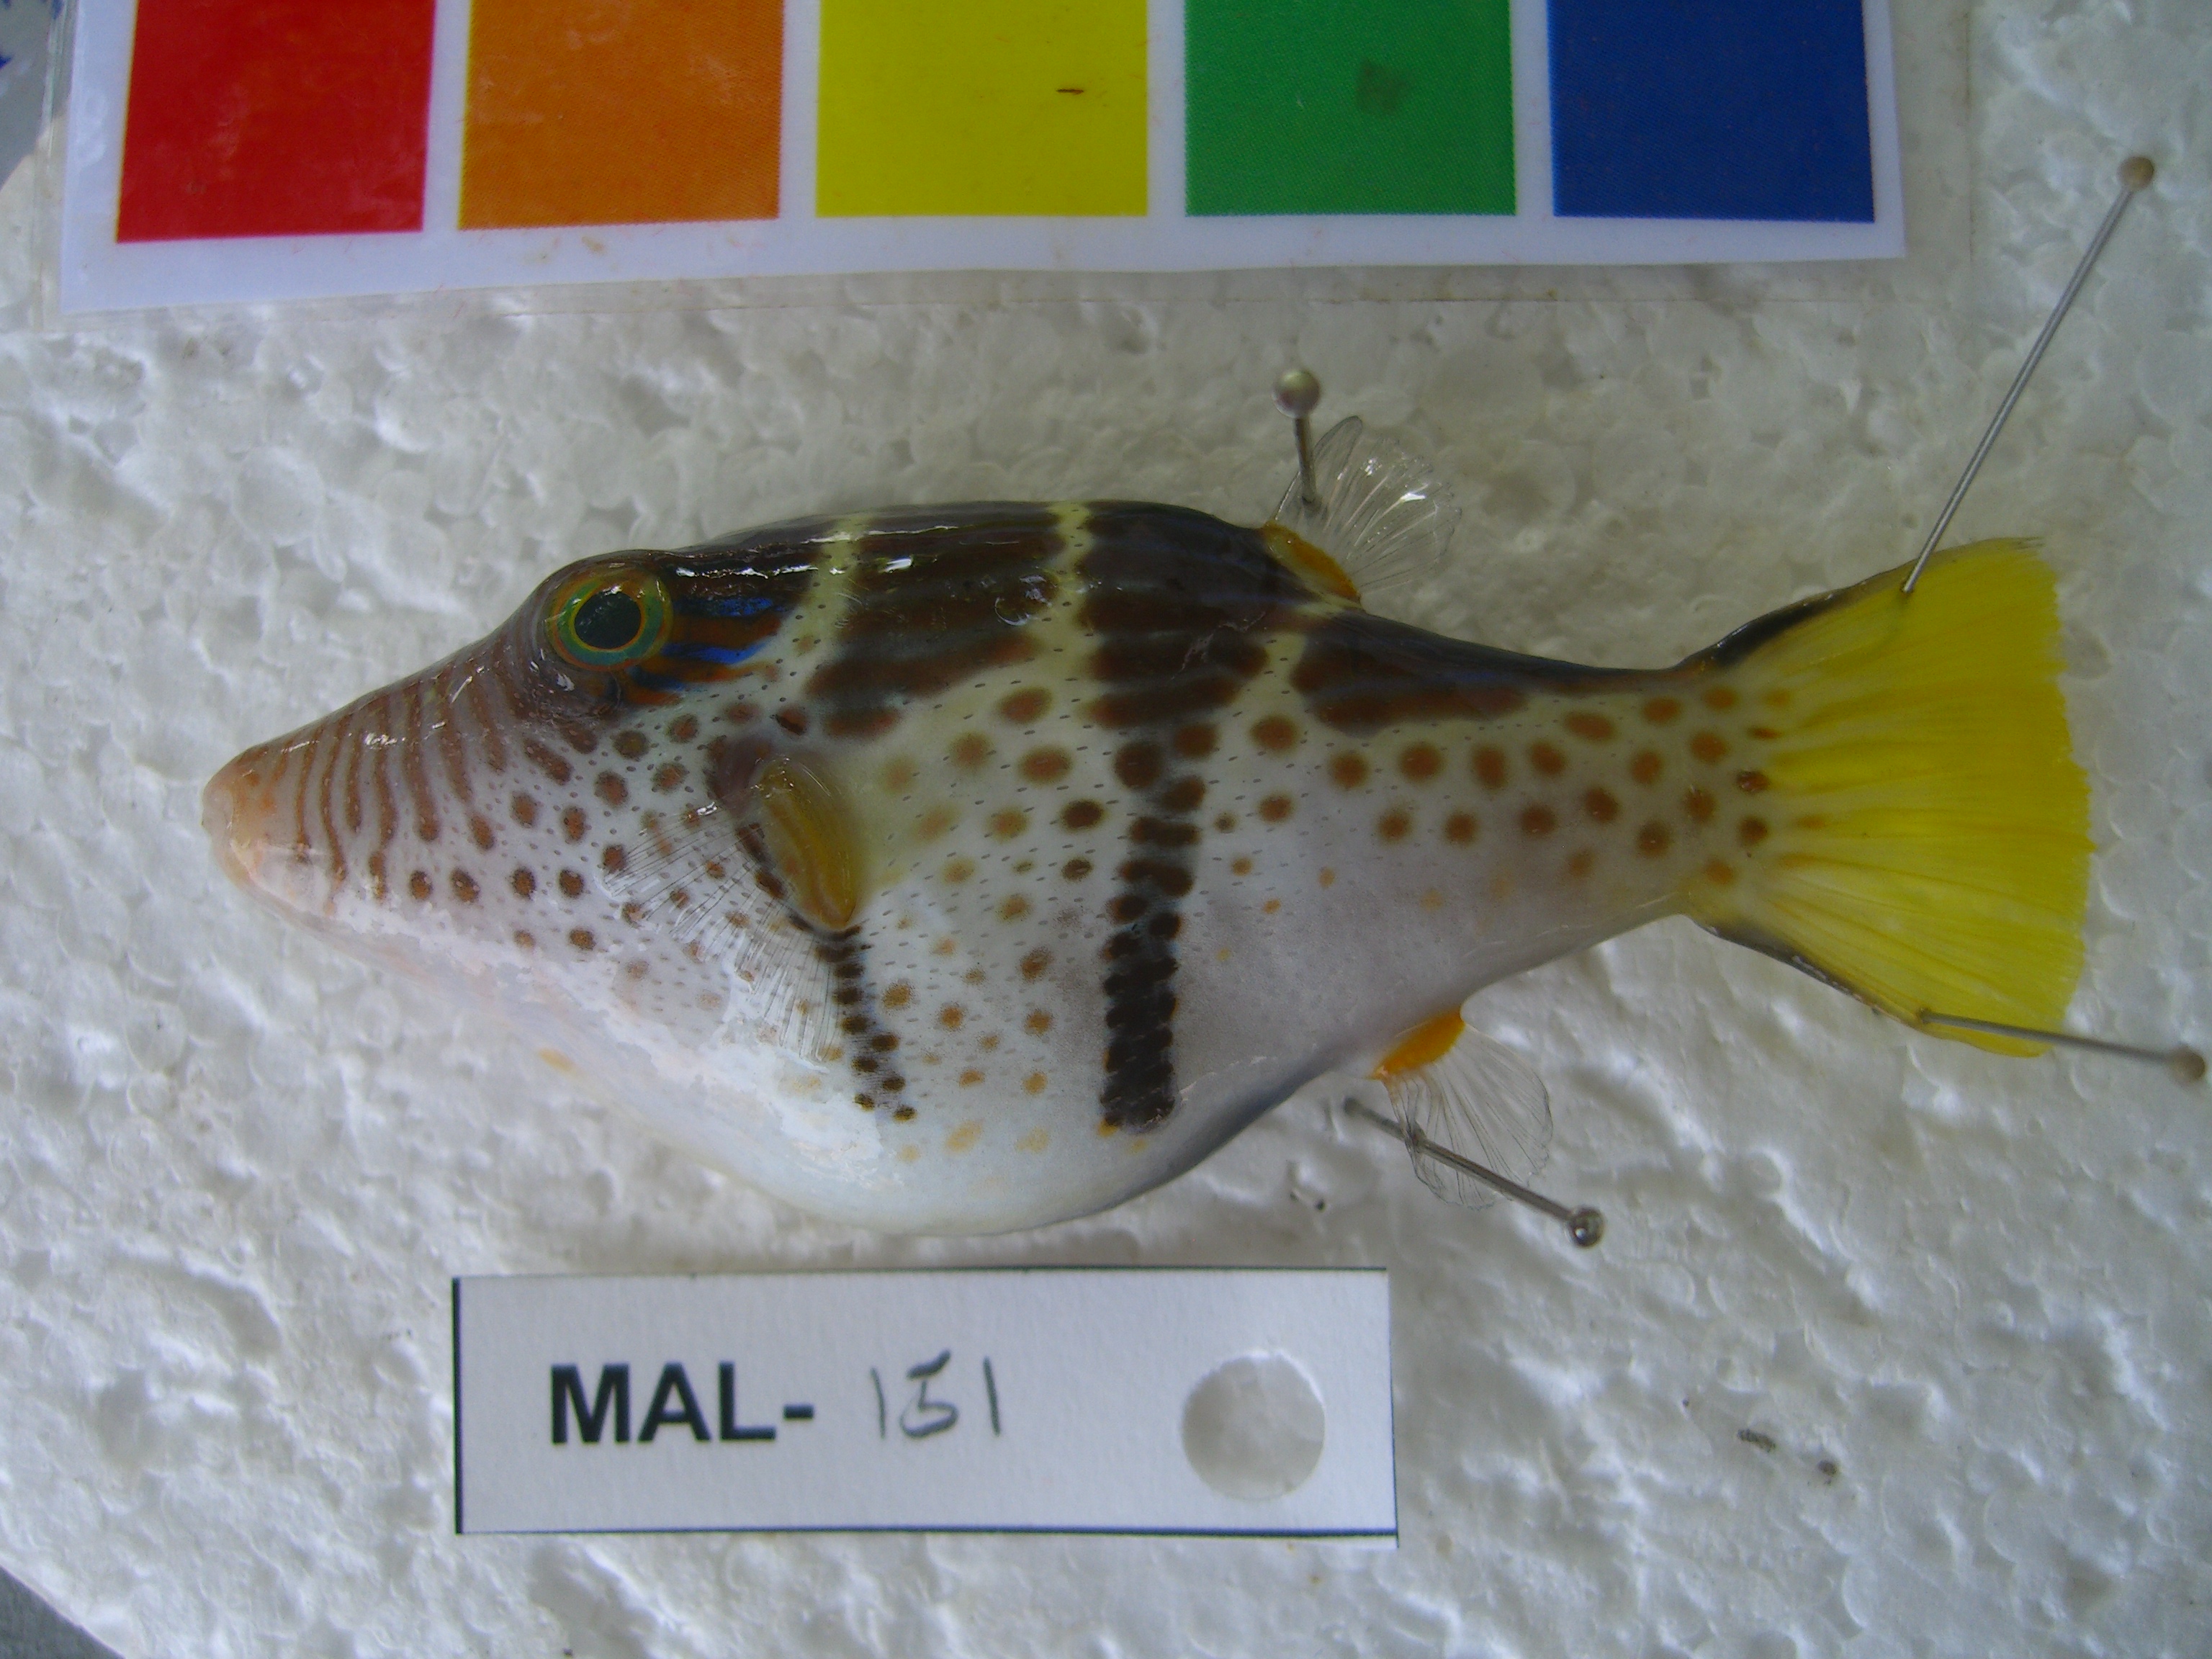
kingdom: Animalia
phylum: Chordata
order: Tetraodontiformes
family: Tetraodontidae
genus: Canthigaster
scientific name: Canthigaster valentini
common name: Banded toby
